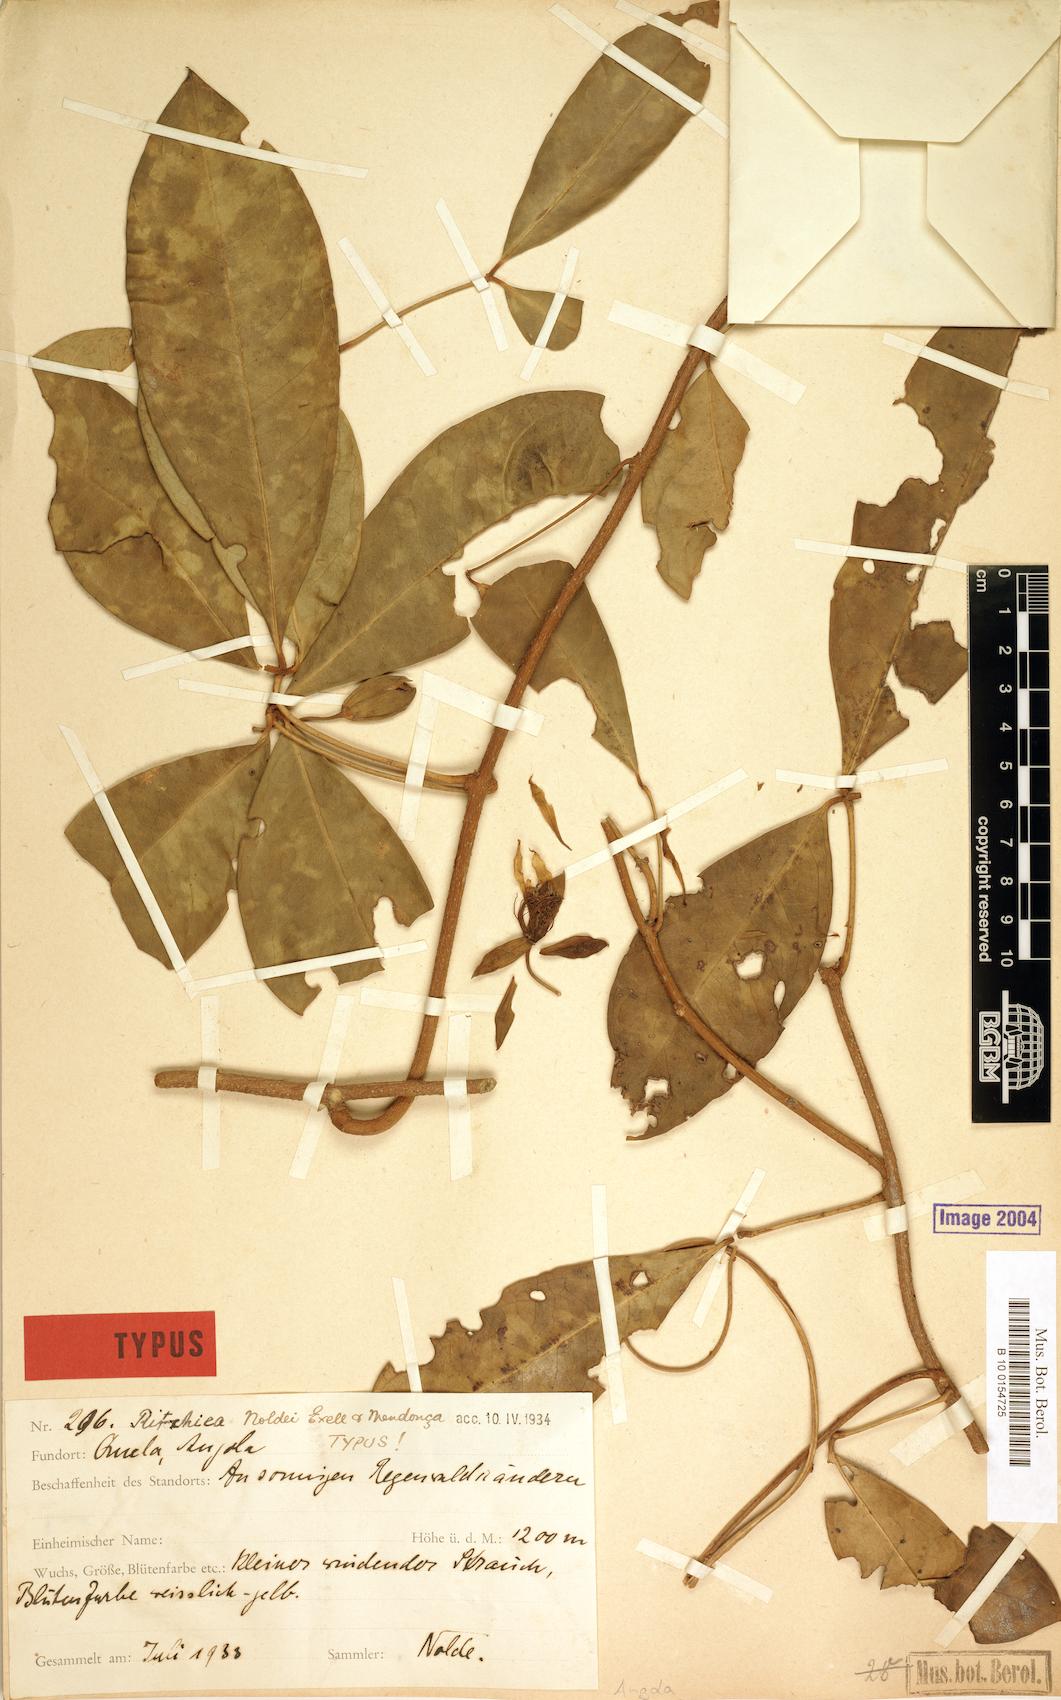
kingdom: Plantae
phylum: Tracheophyta
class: Magnoliopsida
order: Brassicales
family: Capparaceae
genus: Ritchiea
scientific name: Ritchiea noldeae
